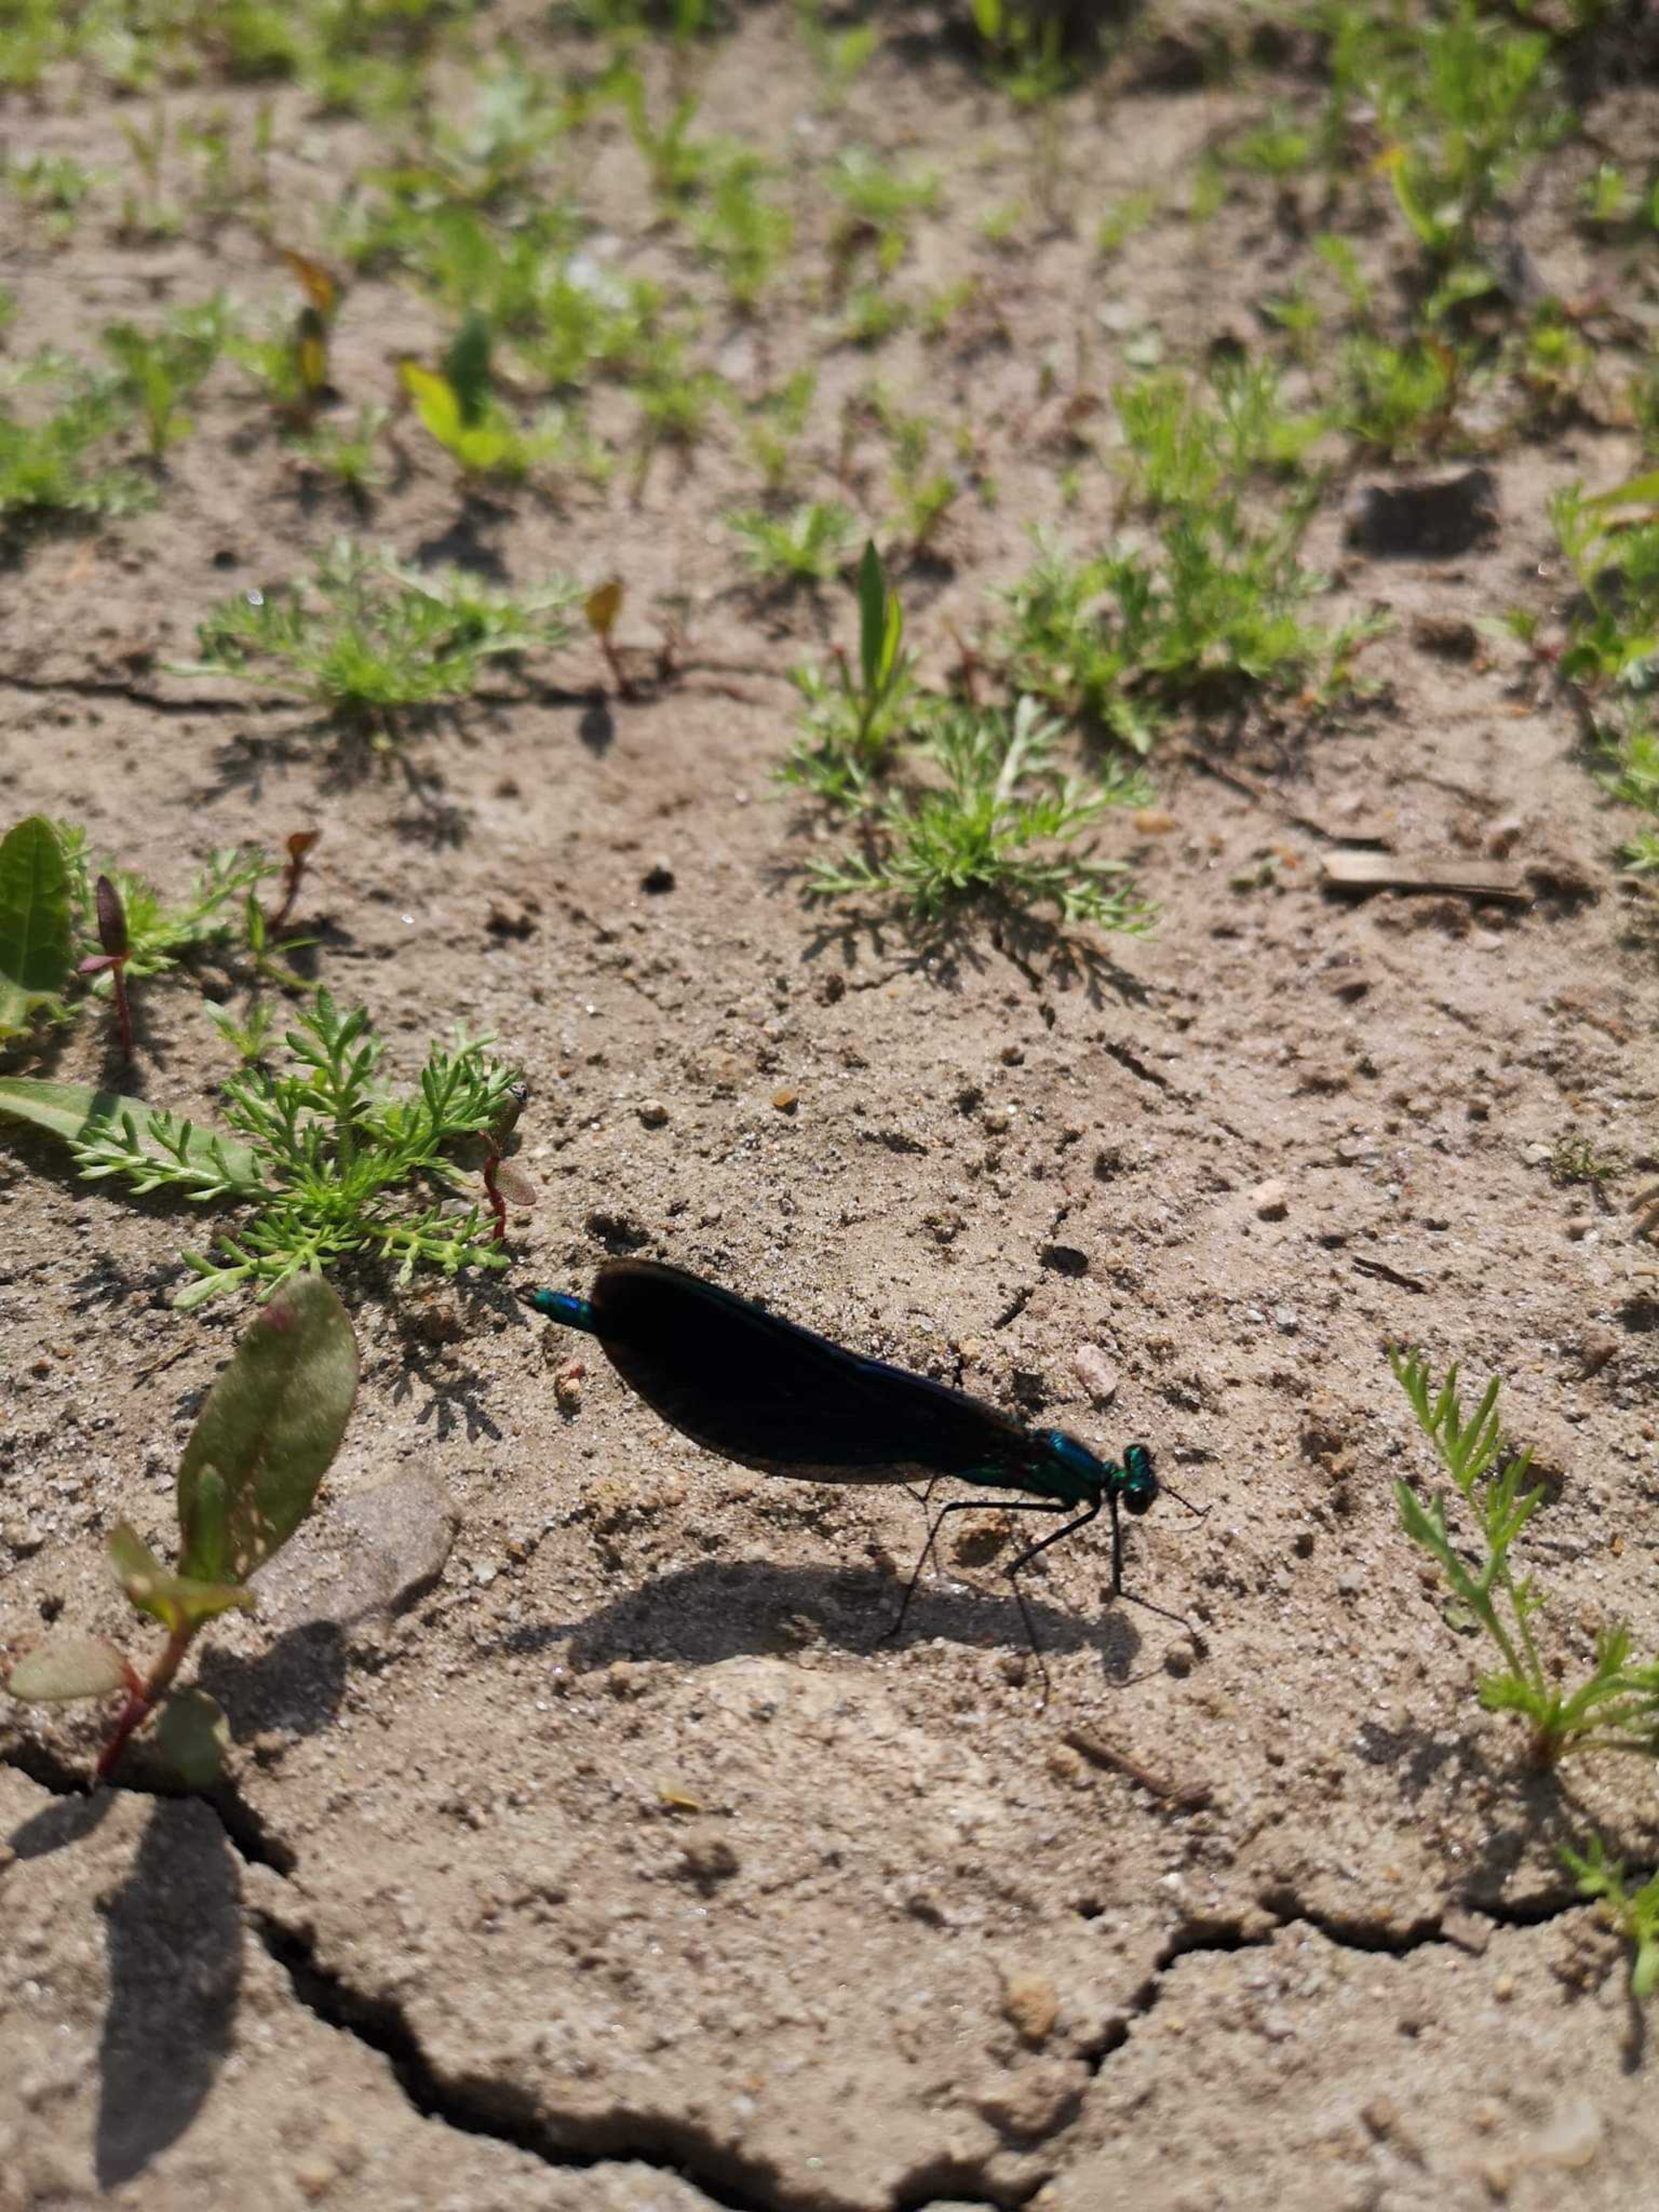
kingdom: Animalia
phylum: Arthropoda
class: Insecta
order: Odonata
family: Calopterygidae
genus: Calopteryx
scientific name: Calopteryx virgo
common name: Blåvinget pragtvandnymfe
